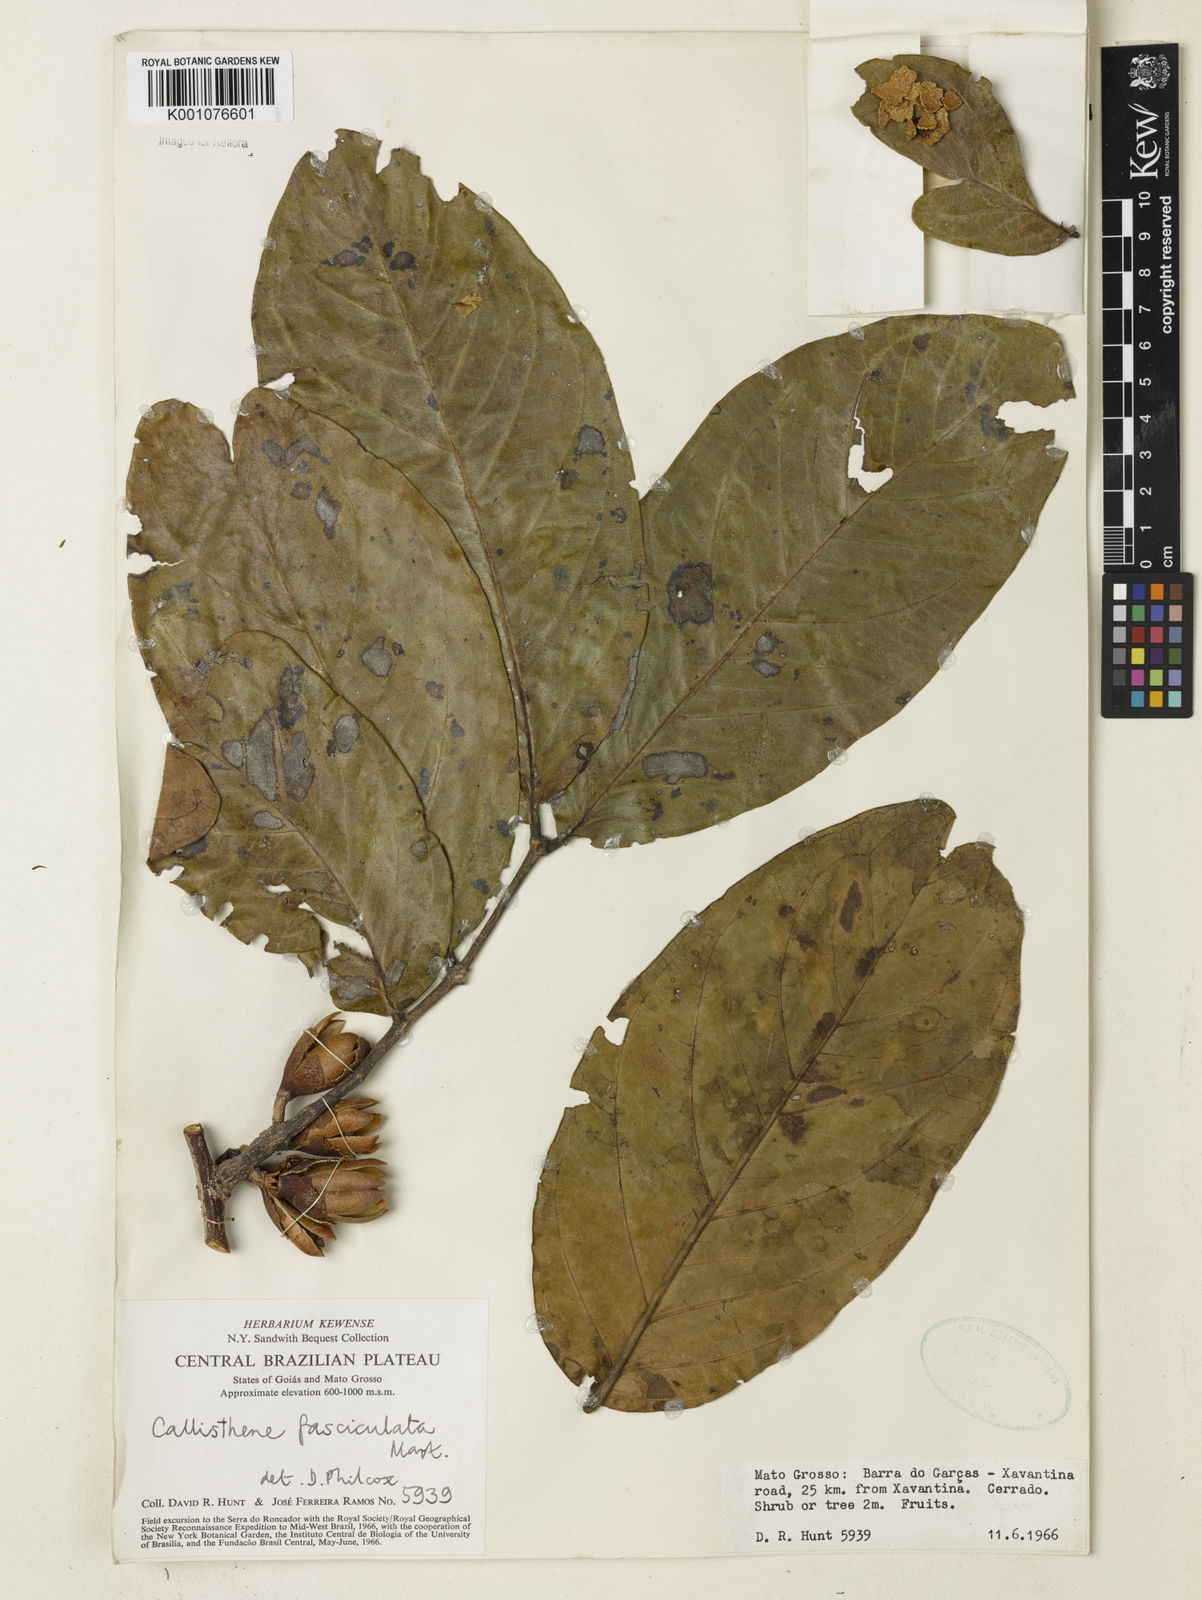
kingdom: Plantae
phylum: Tracheophyta
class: Magnoliopsida
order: Myrtales
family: Vochysiaceae
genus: Callisthene
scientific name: Callisthene fasciculata
